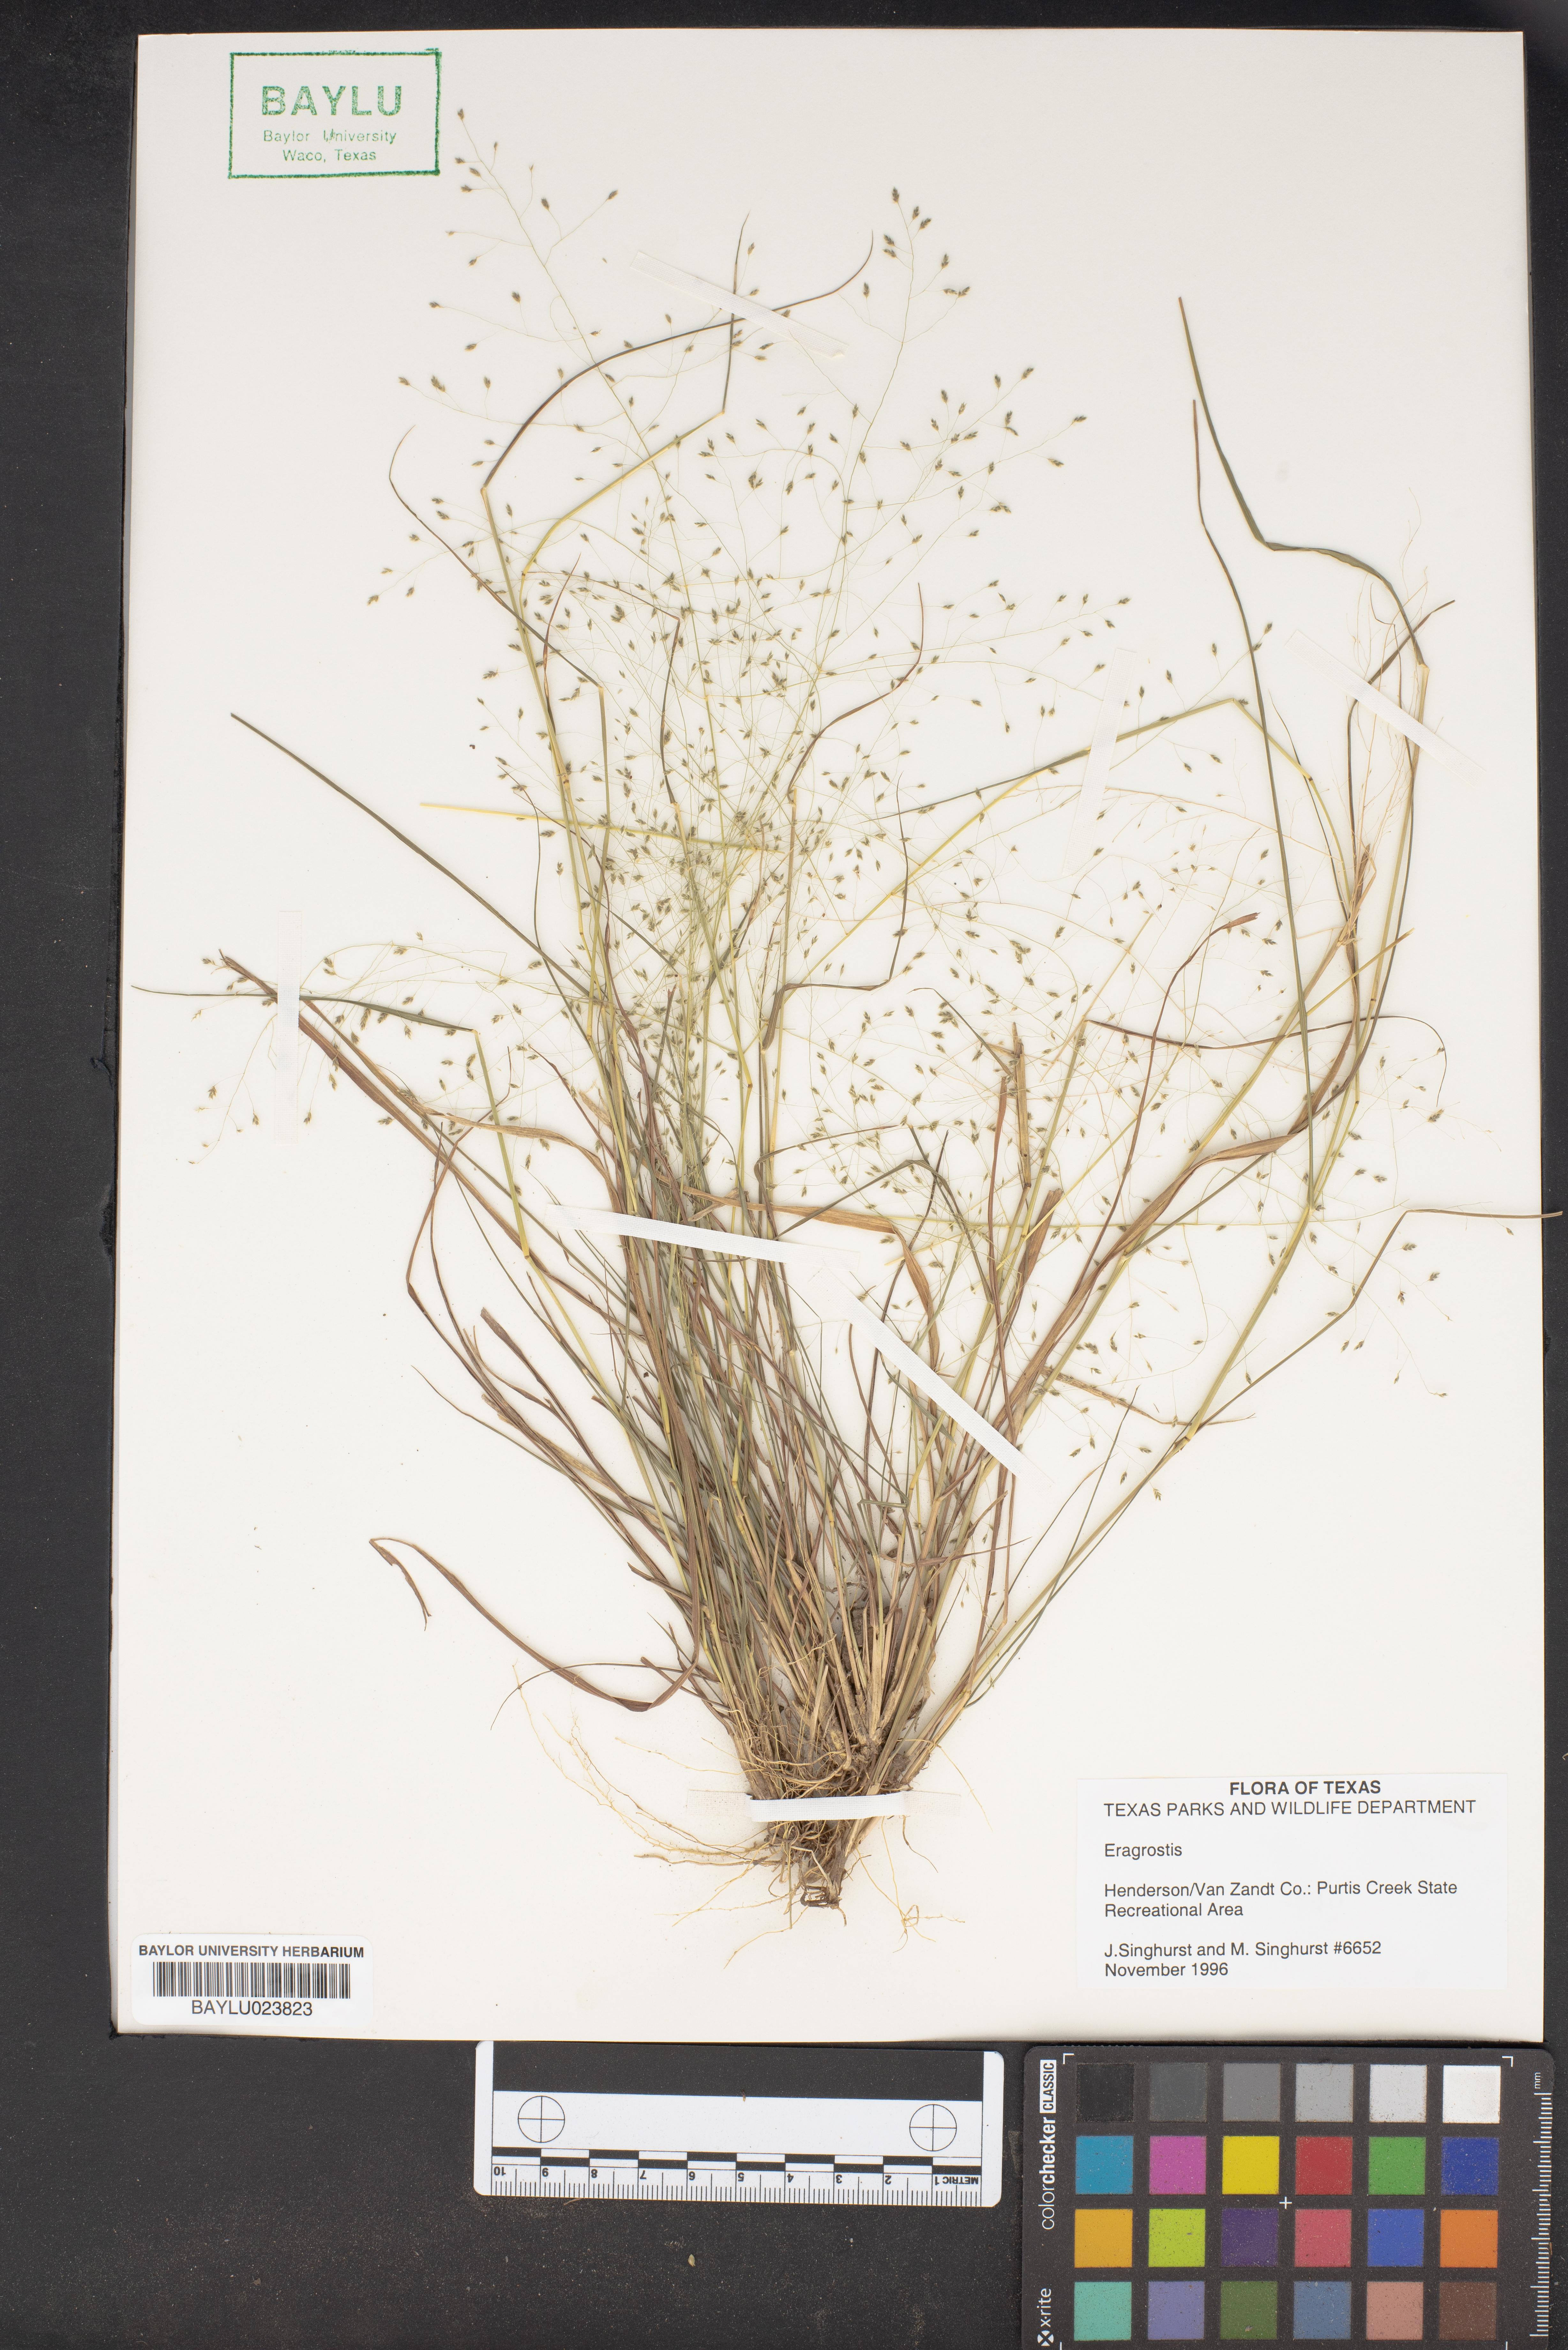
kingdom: Plantae
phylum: Tracheophyta
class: Liliopsida
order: Poales
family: Poaceae
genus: Eragrostis
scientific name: Eragrostis
